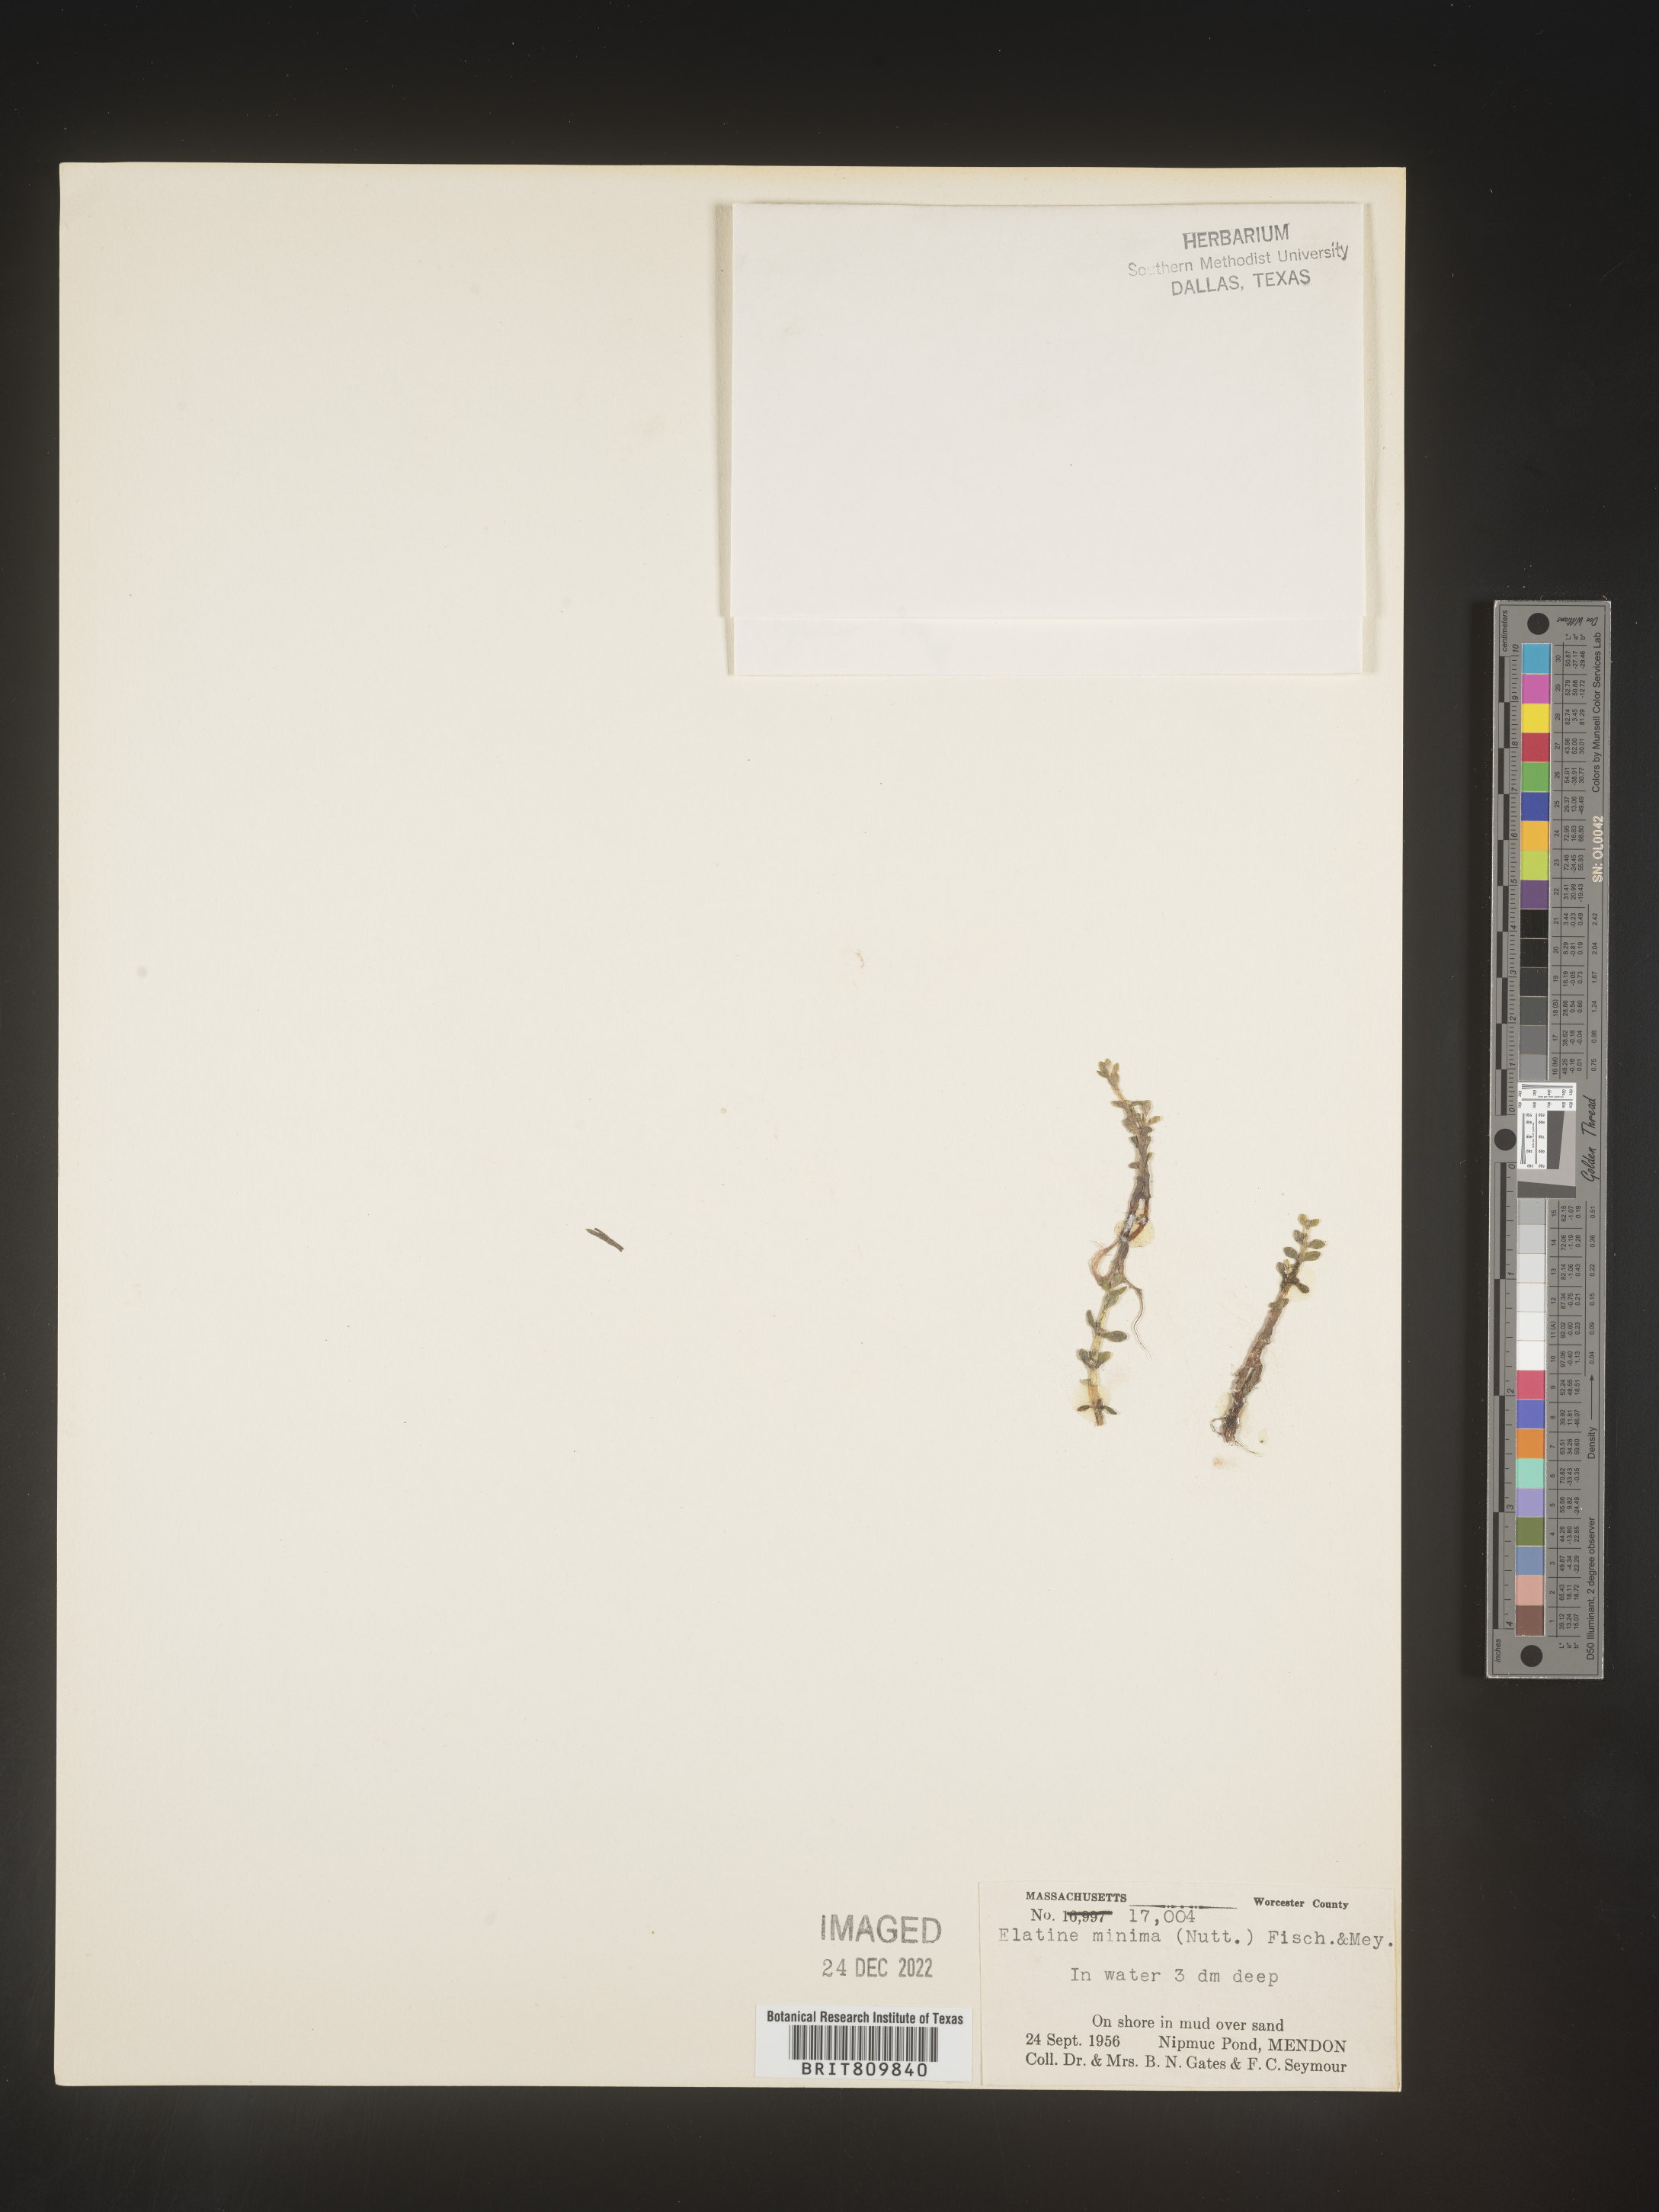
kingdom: Plantae
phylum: Tracheophyta
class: Magnoliopsida
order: Malpighiales
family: Elatinaceae
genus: Elatine
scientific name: Elatine
